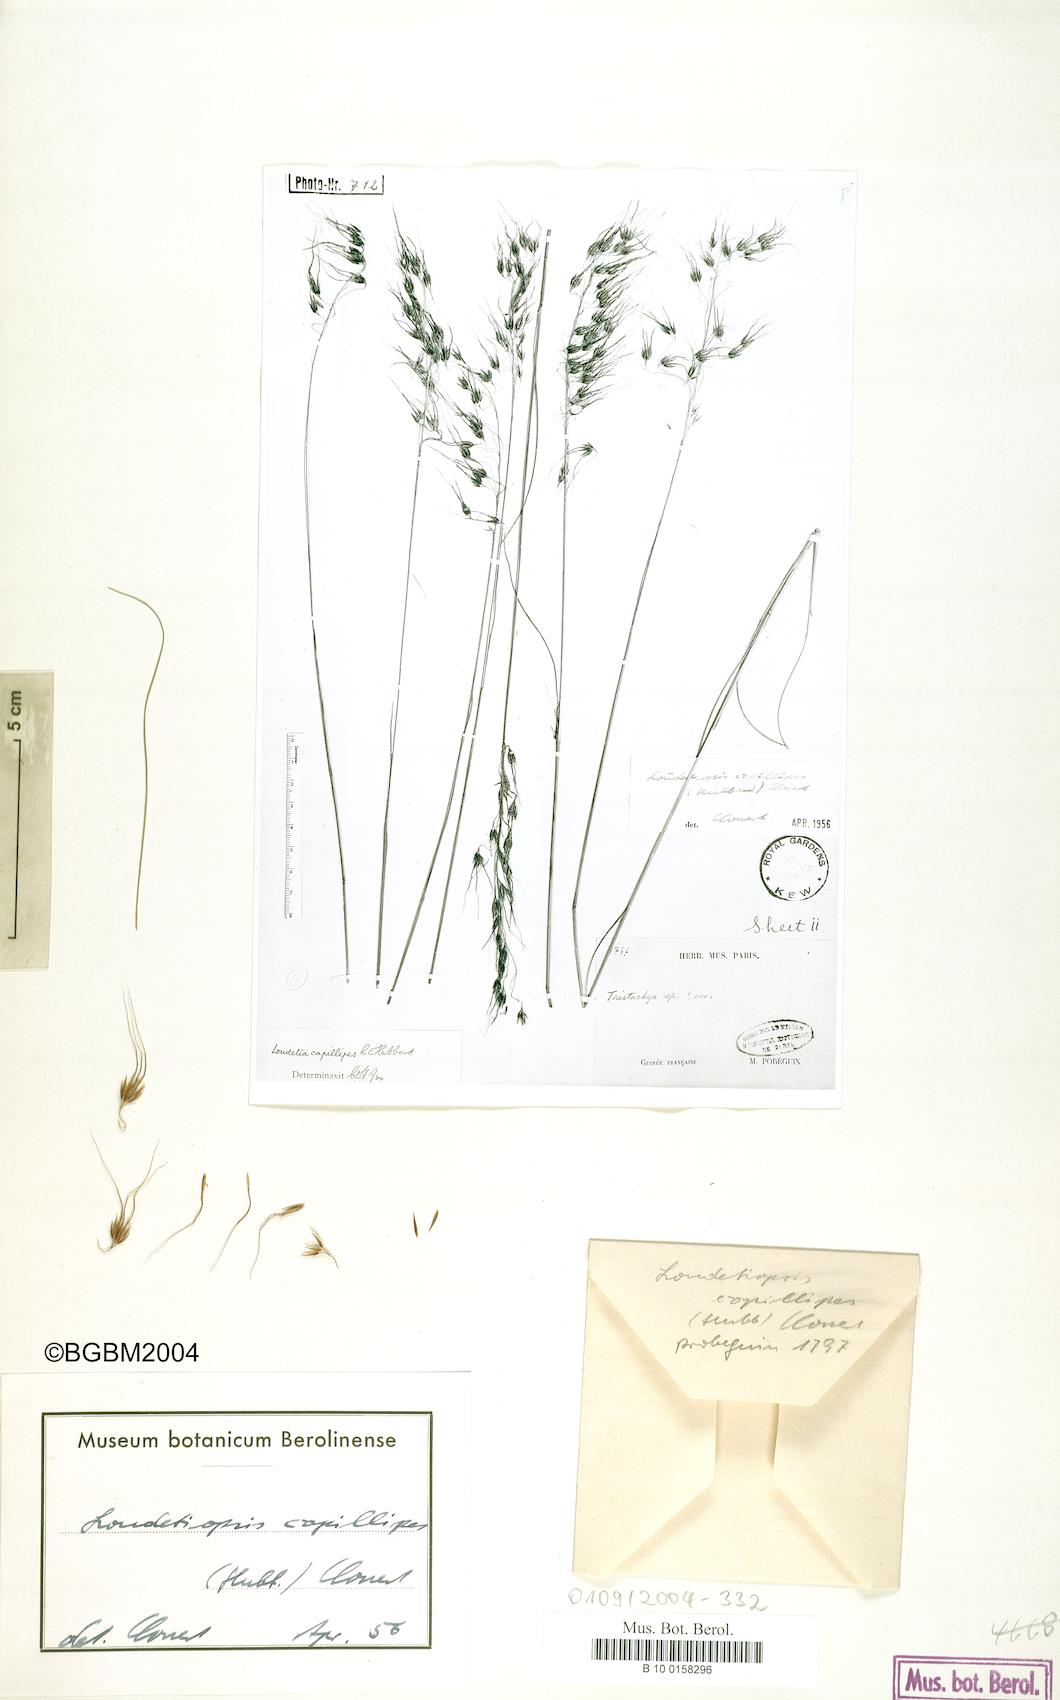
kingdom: Plantae
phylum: Tracheophyta
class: Liliopsida
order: Poales
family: Poaceae
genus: Loudetiopsis
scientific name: Loudetiopsis capillipes
